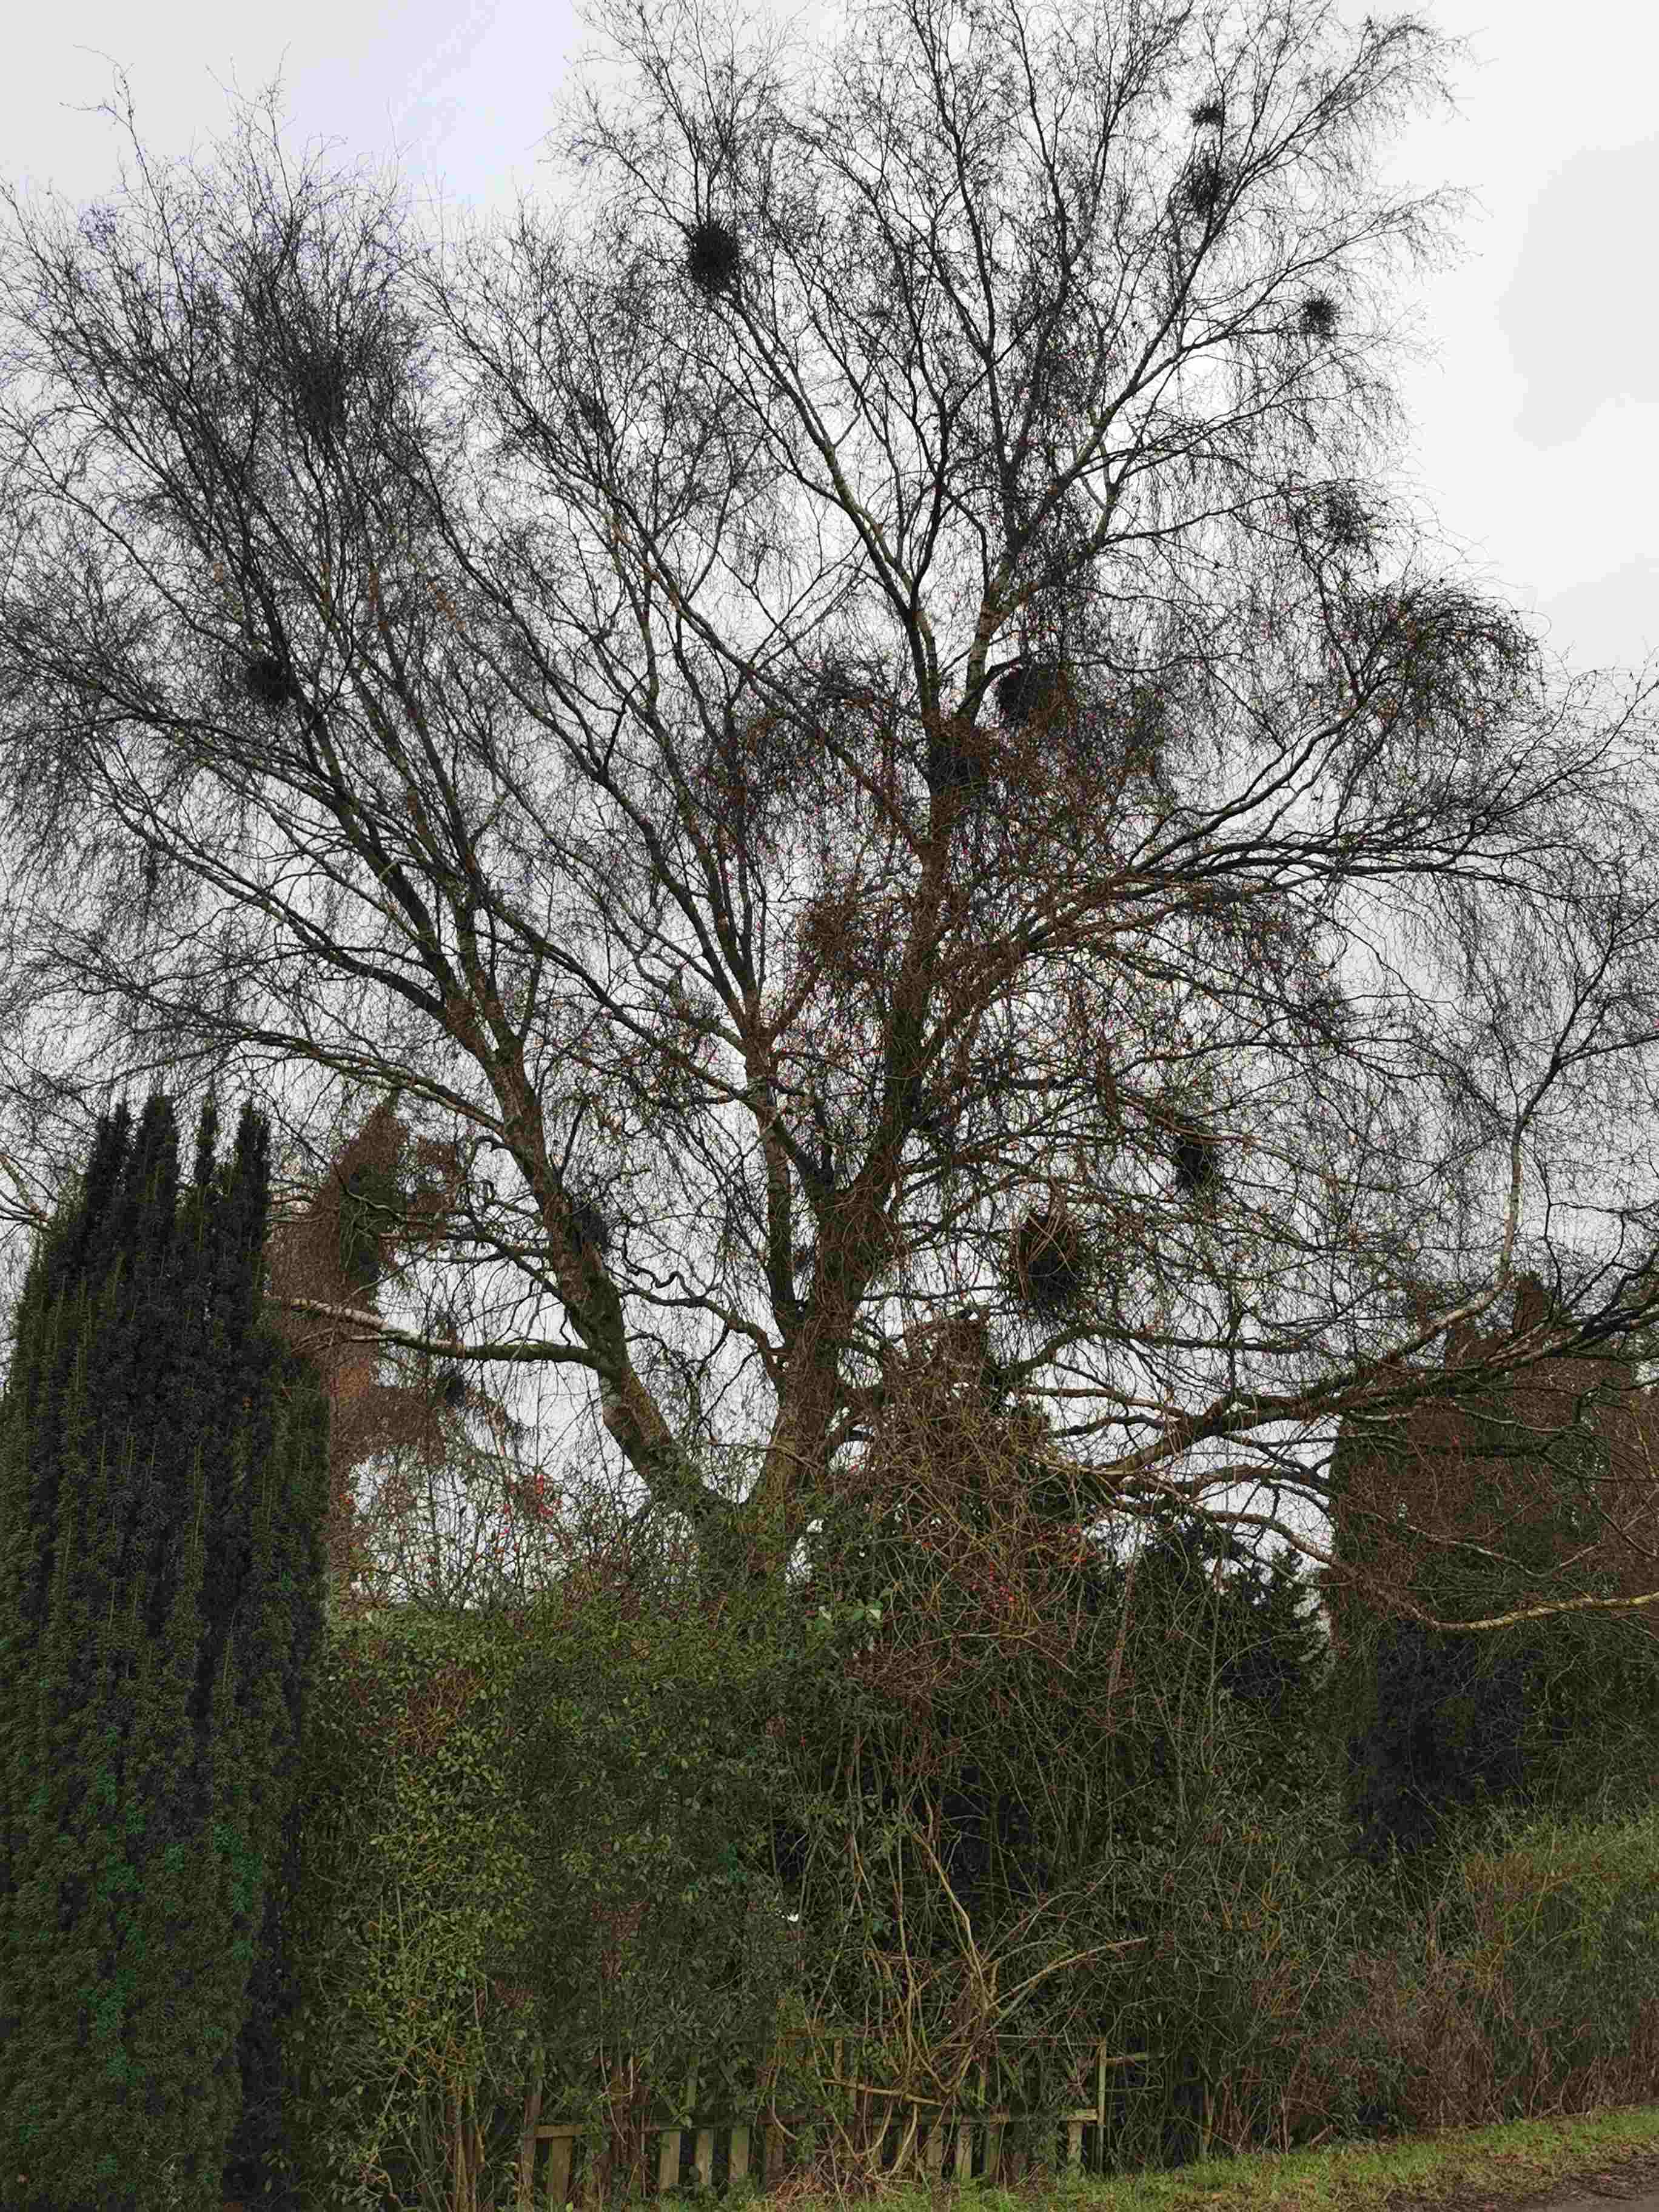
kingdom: Fungi
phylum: Ascomycota
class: Taphrinomycetes
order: Taphrinales
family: Taphrinaceae
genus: Taphrina
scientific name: Taphrina betulina
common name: hekse-sækdug
